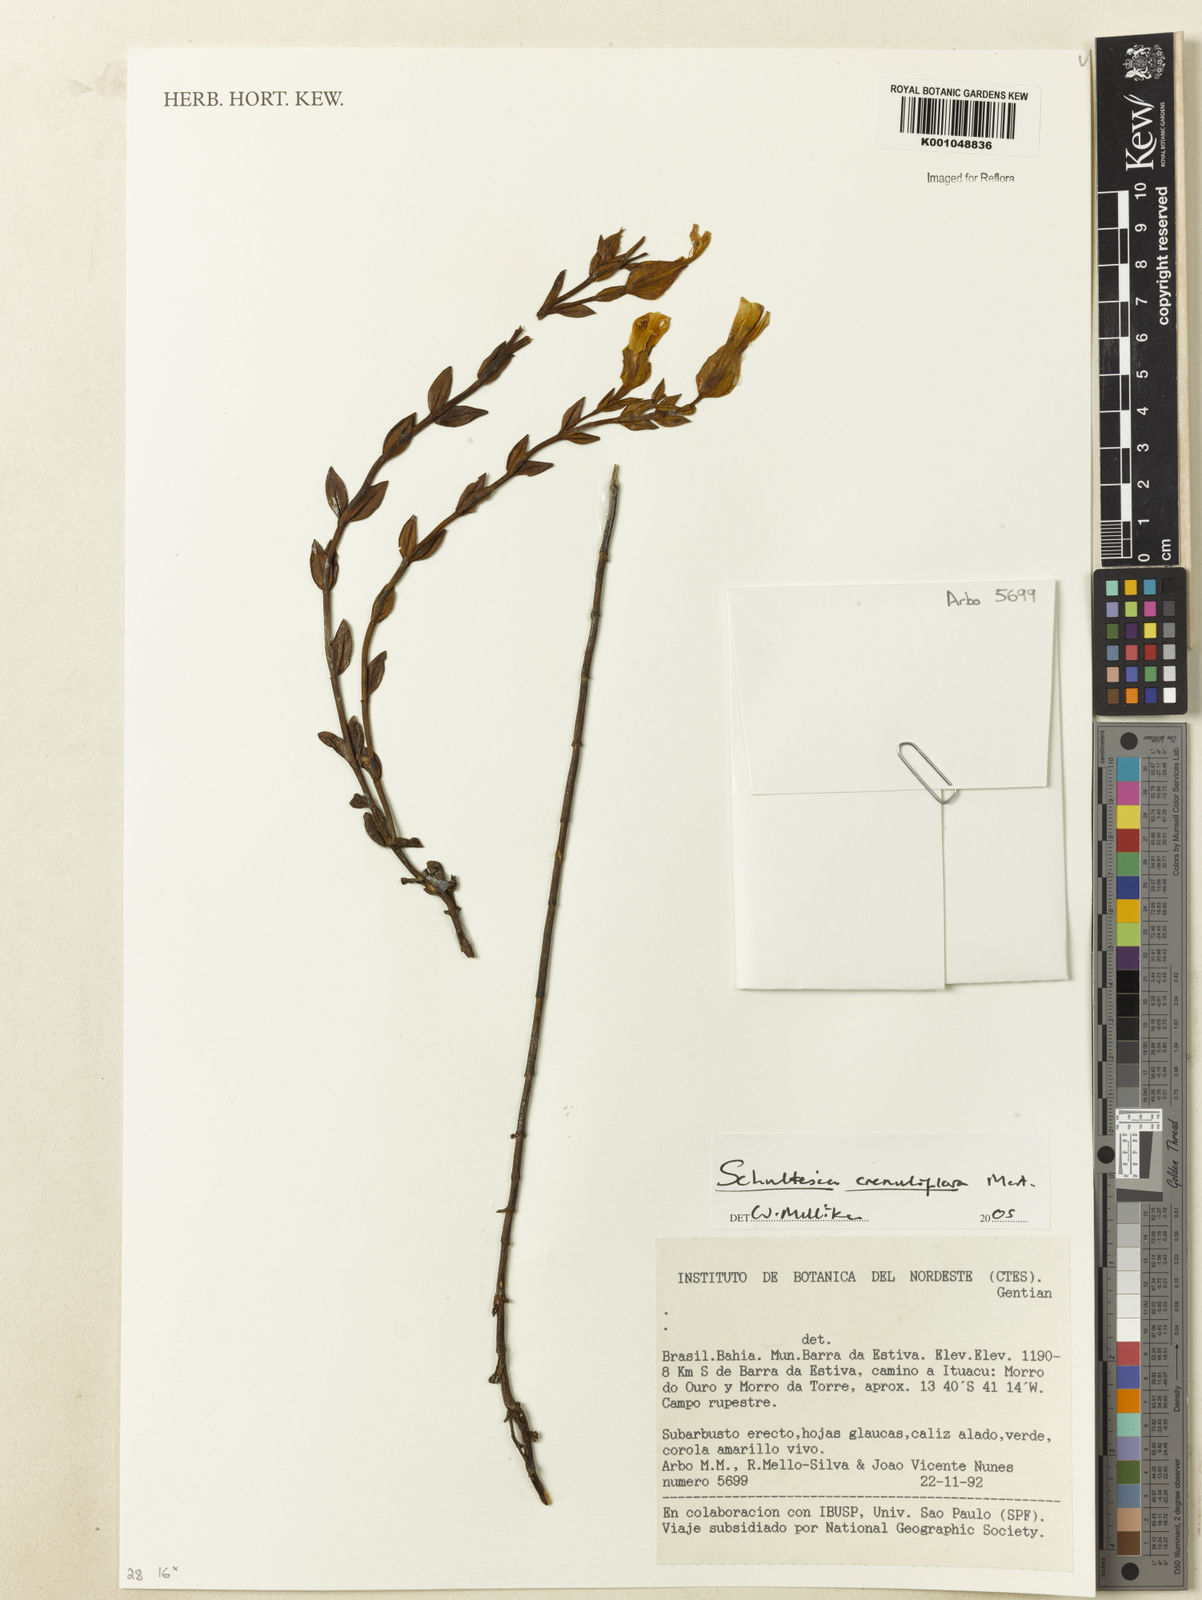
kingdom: Plantae
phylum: Tracheophyta
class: Magnoliopsida
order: Gentianales
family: Gentianaceae
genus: Schultesia
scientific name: Schultesia crenuliflora
